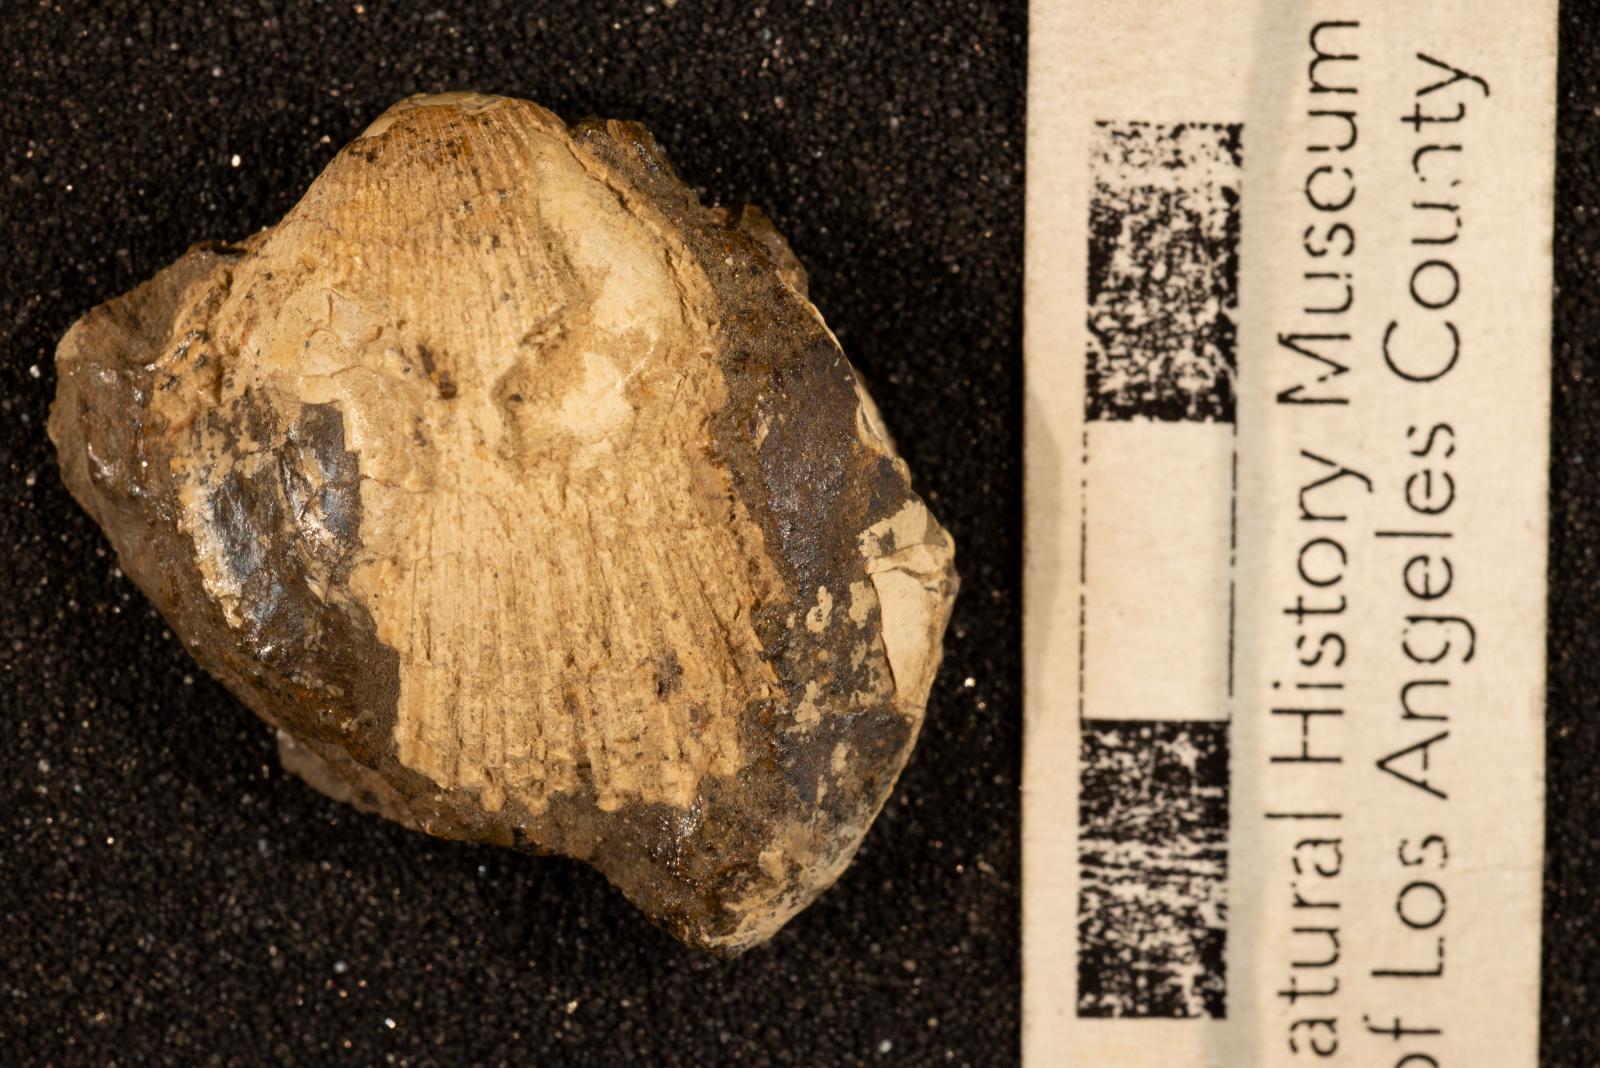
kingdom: Animalia
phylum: Mollusca
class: Bivalvia
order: Cardiida
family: Cardiidae
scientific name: Cardiidae
